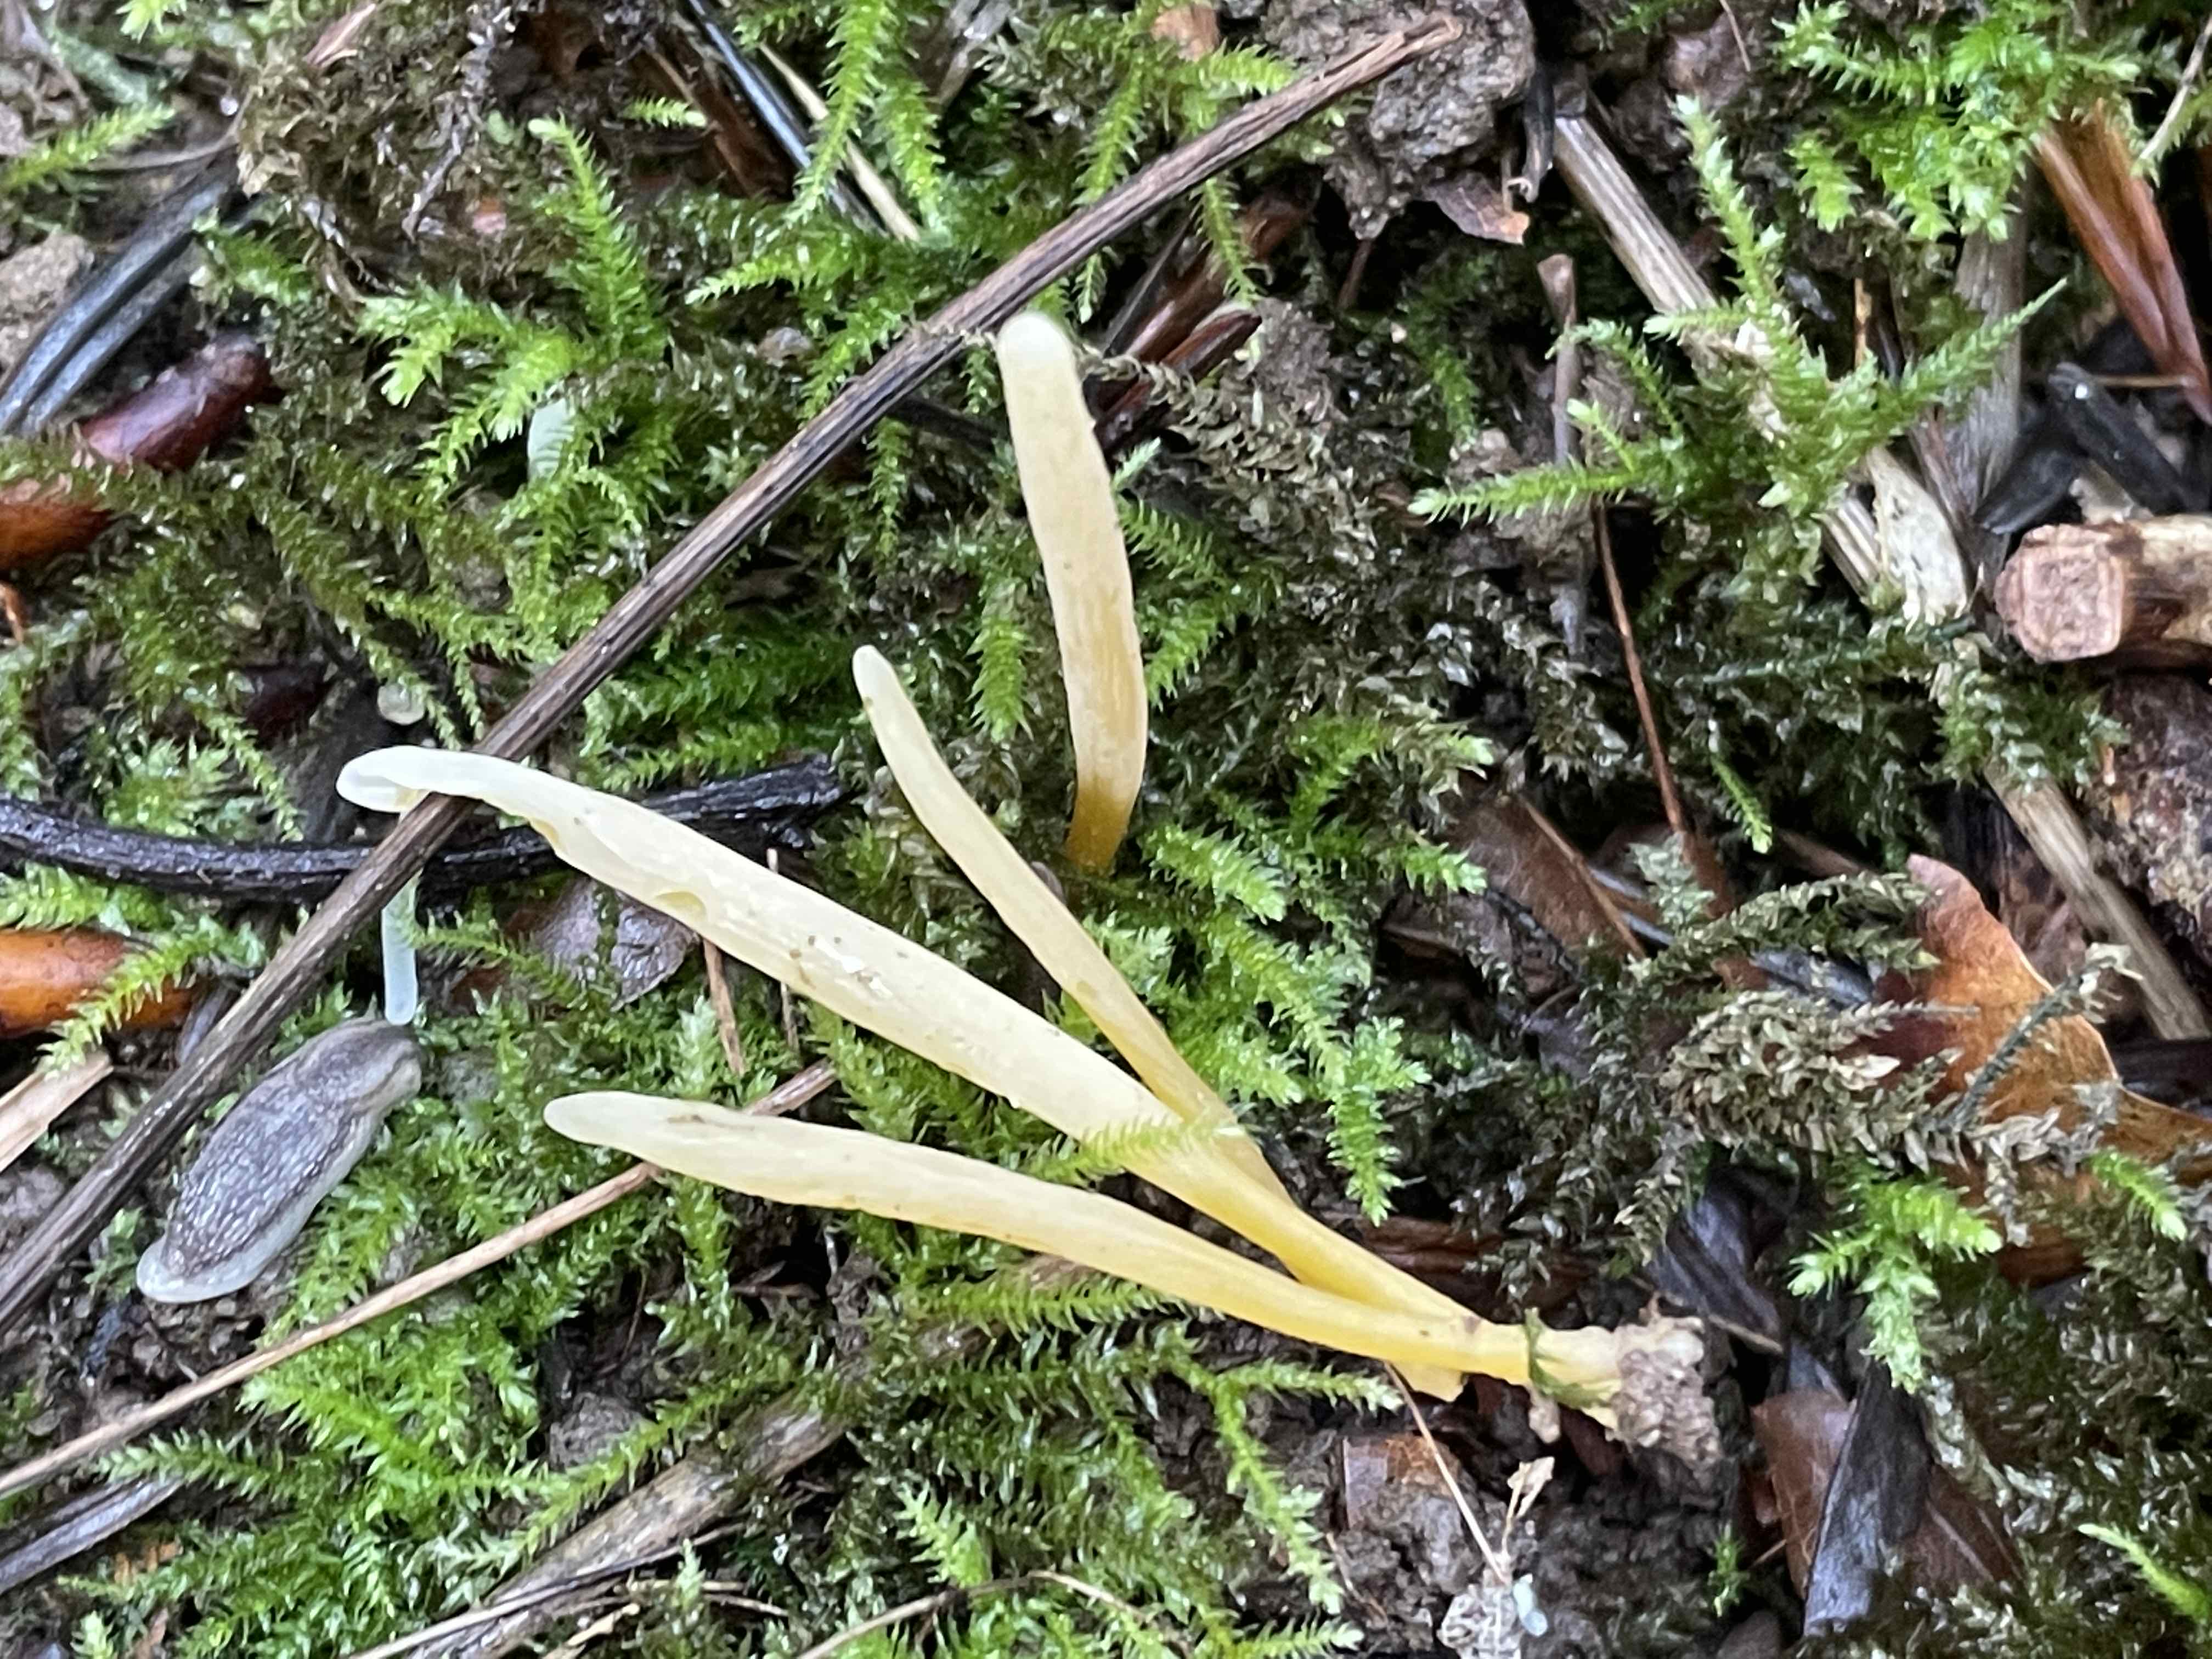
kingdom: Fungi
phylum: Basidiomycota
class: Agaricomycetes
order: Agaricales
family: Clavariaceae
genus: Clavaria
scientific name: Clavaria flavipes
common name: strågul køllesvamp
